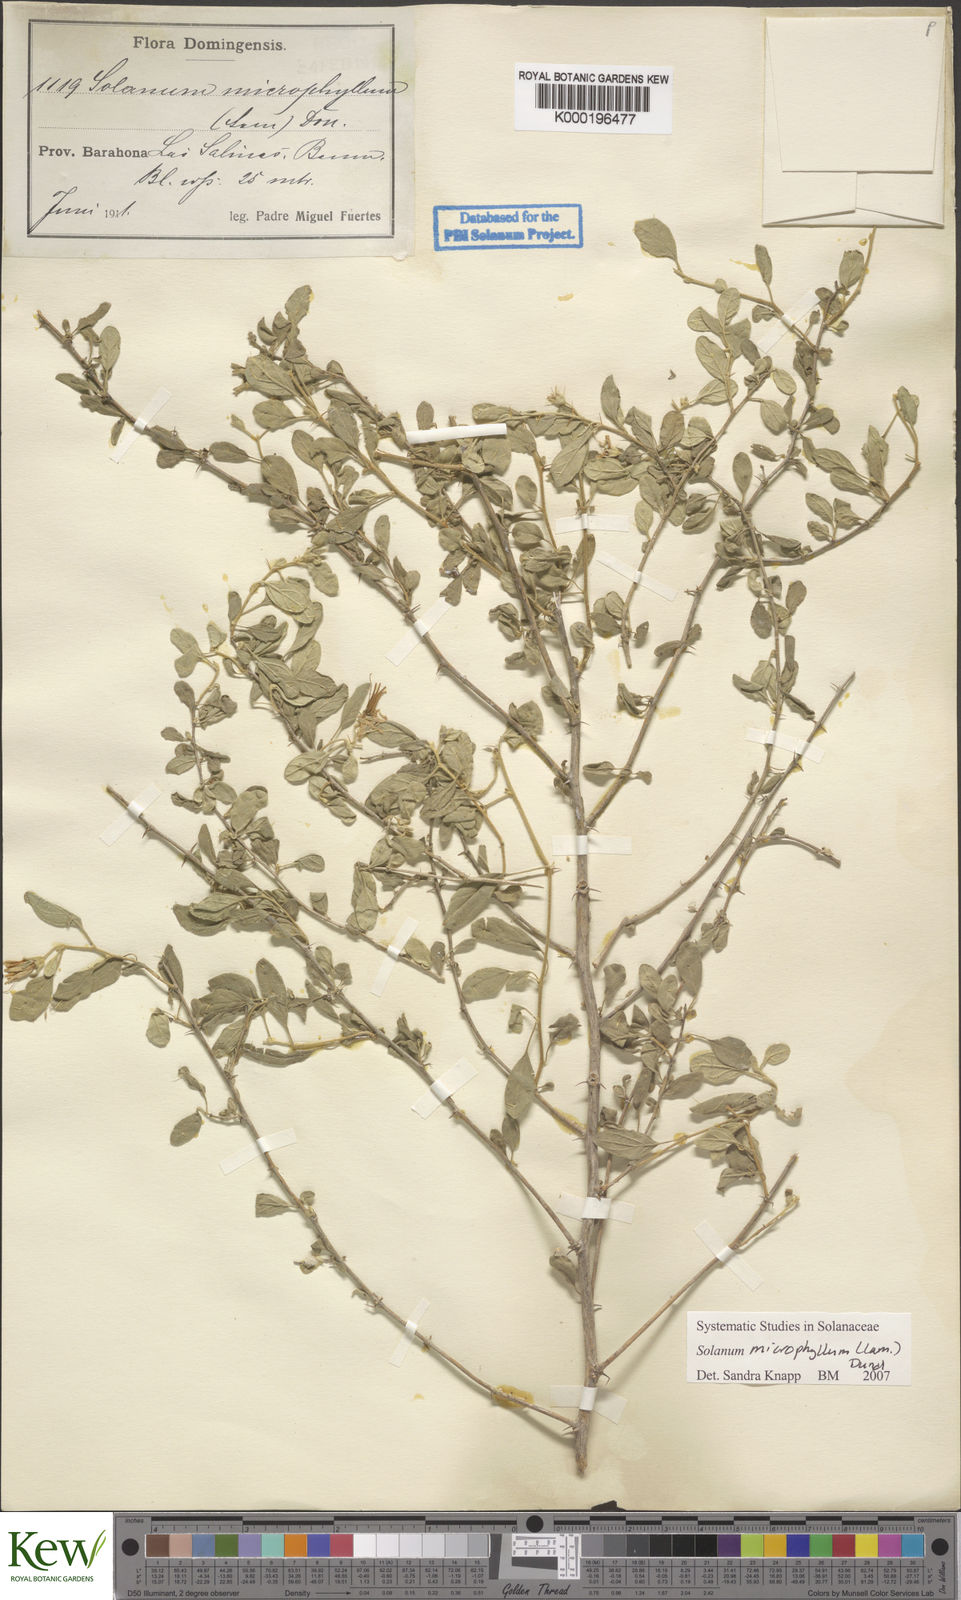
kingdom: Plantae
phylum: Tracheophyta
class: Magnoliopsida
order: Solanales
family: Solanaceae
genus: Solanum
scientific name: Solanum
